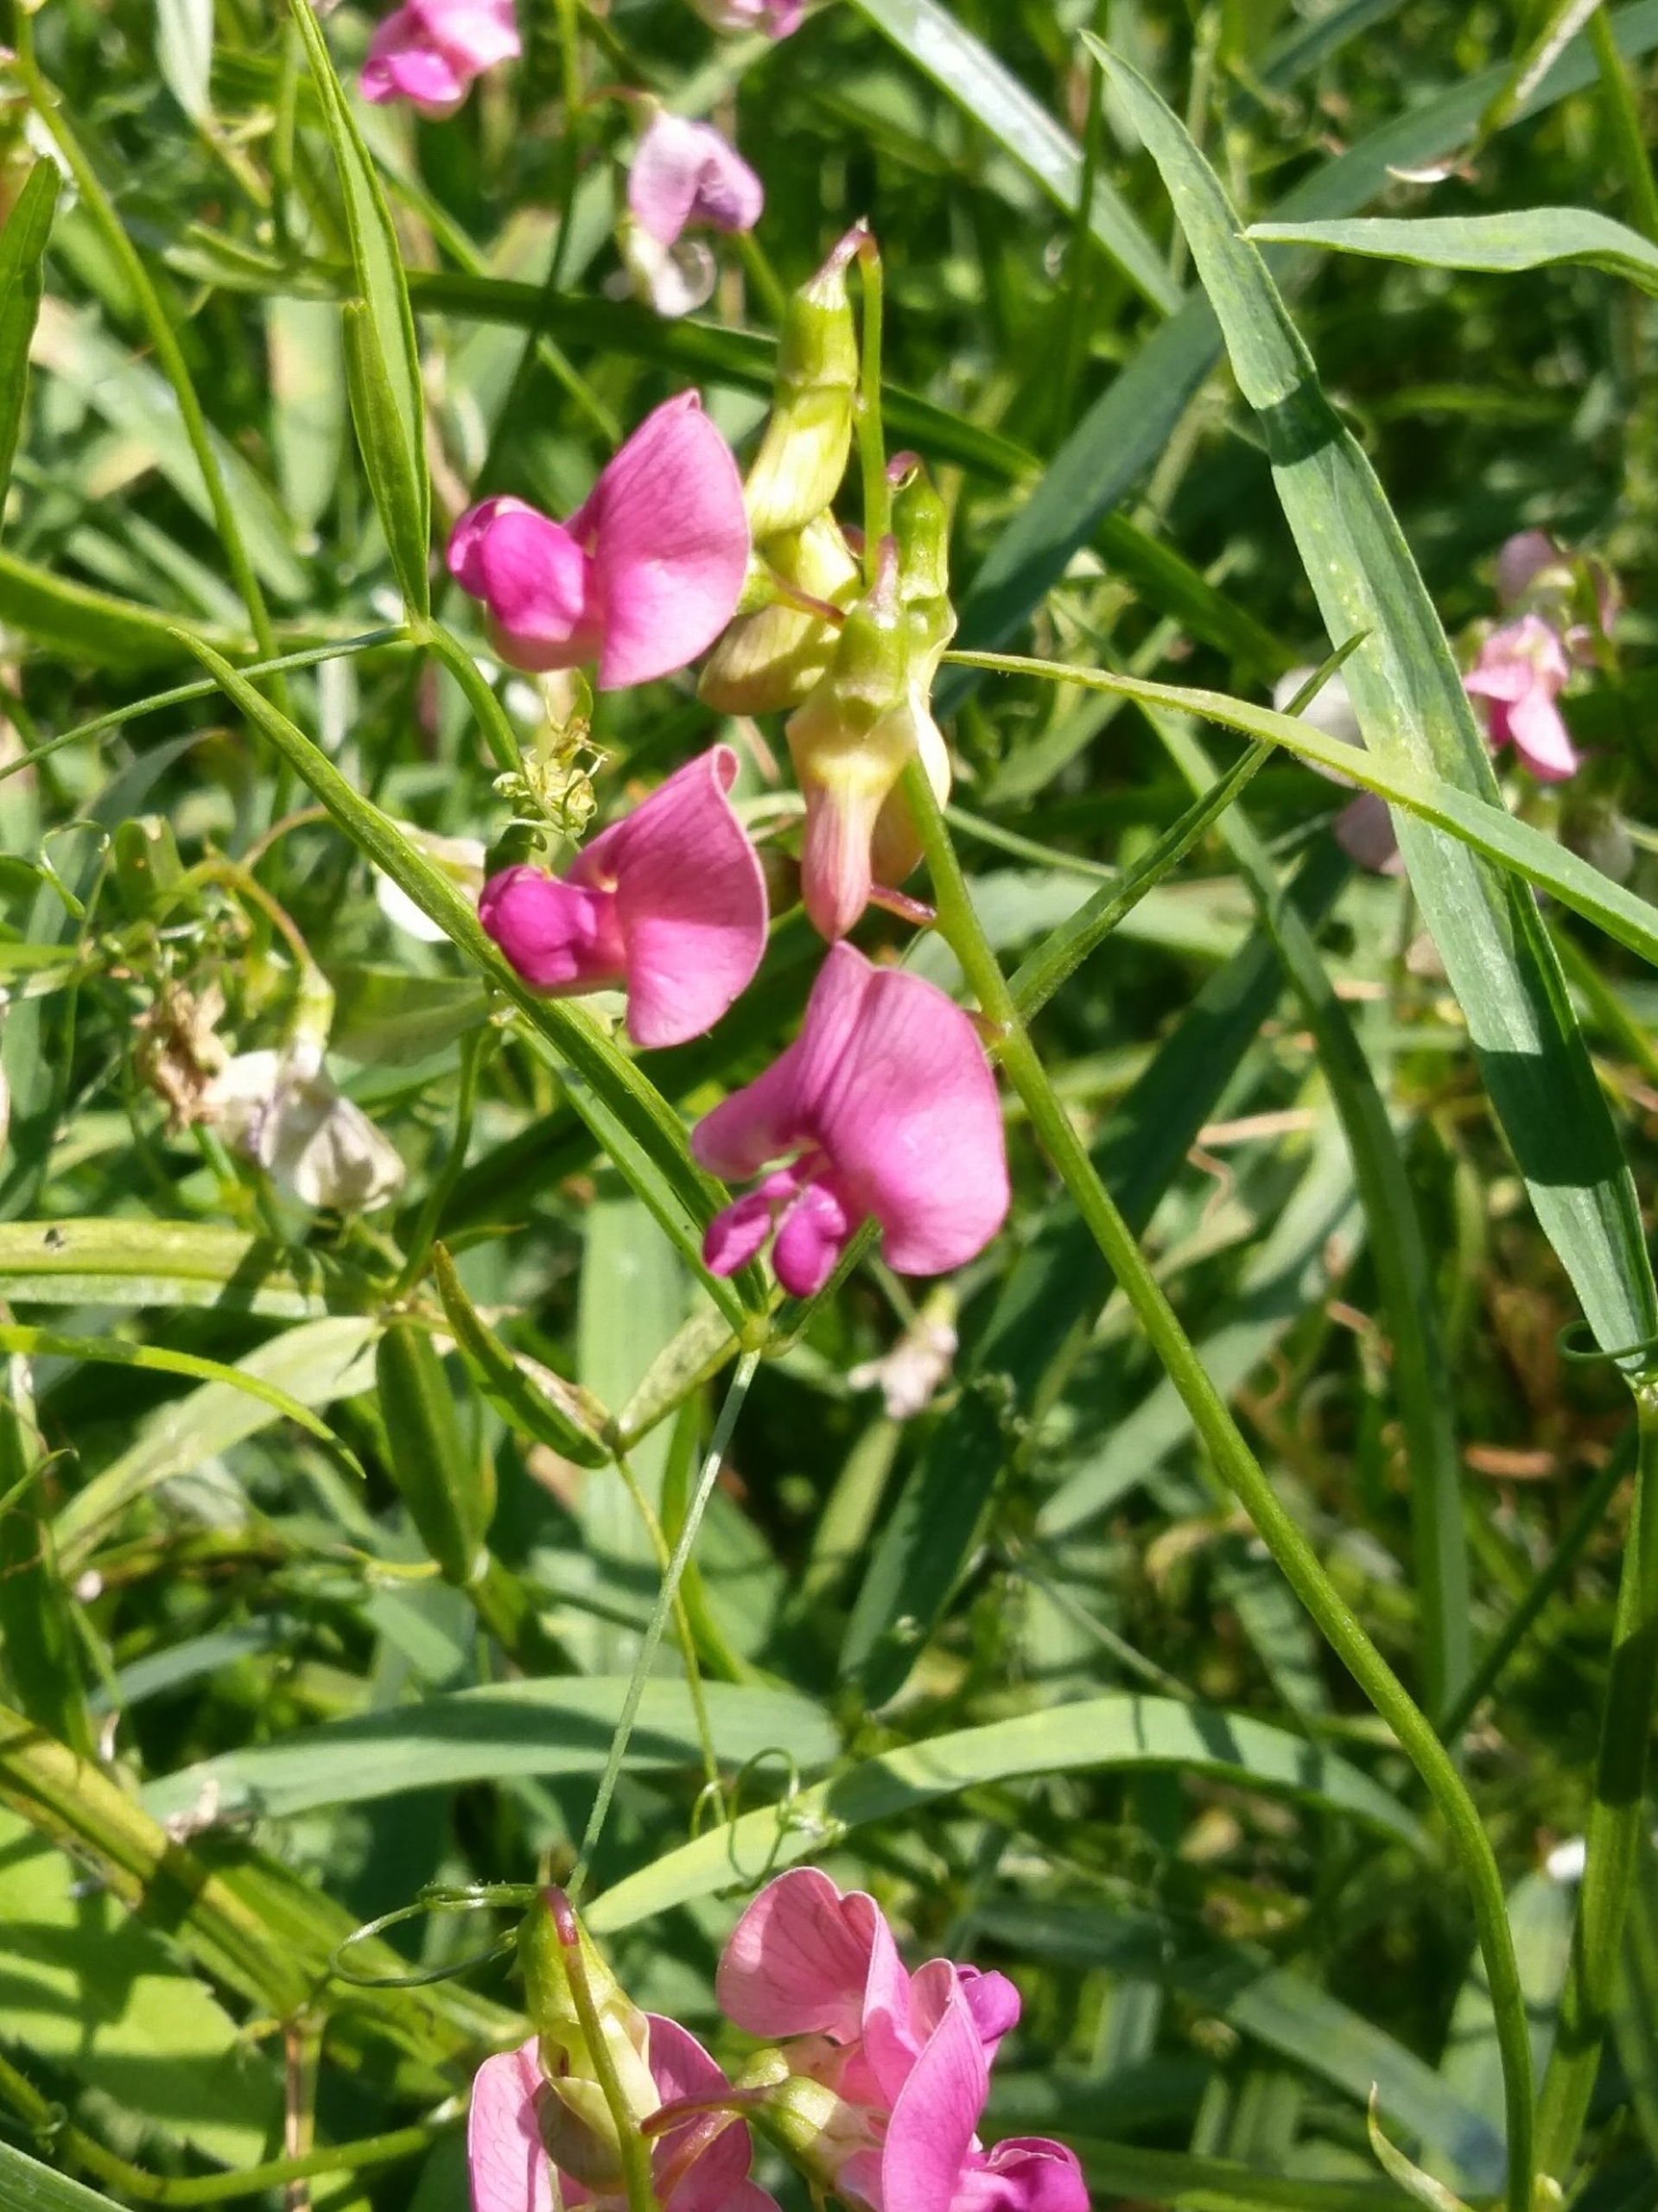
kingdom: Plantae
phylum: Tracheophyta
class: Magnoliopsida
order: Fabales
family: Fabaceae
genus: Lathyrus
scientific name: Lathyrus sylvestris
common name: Skov-fladbælg
